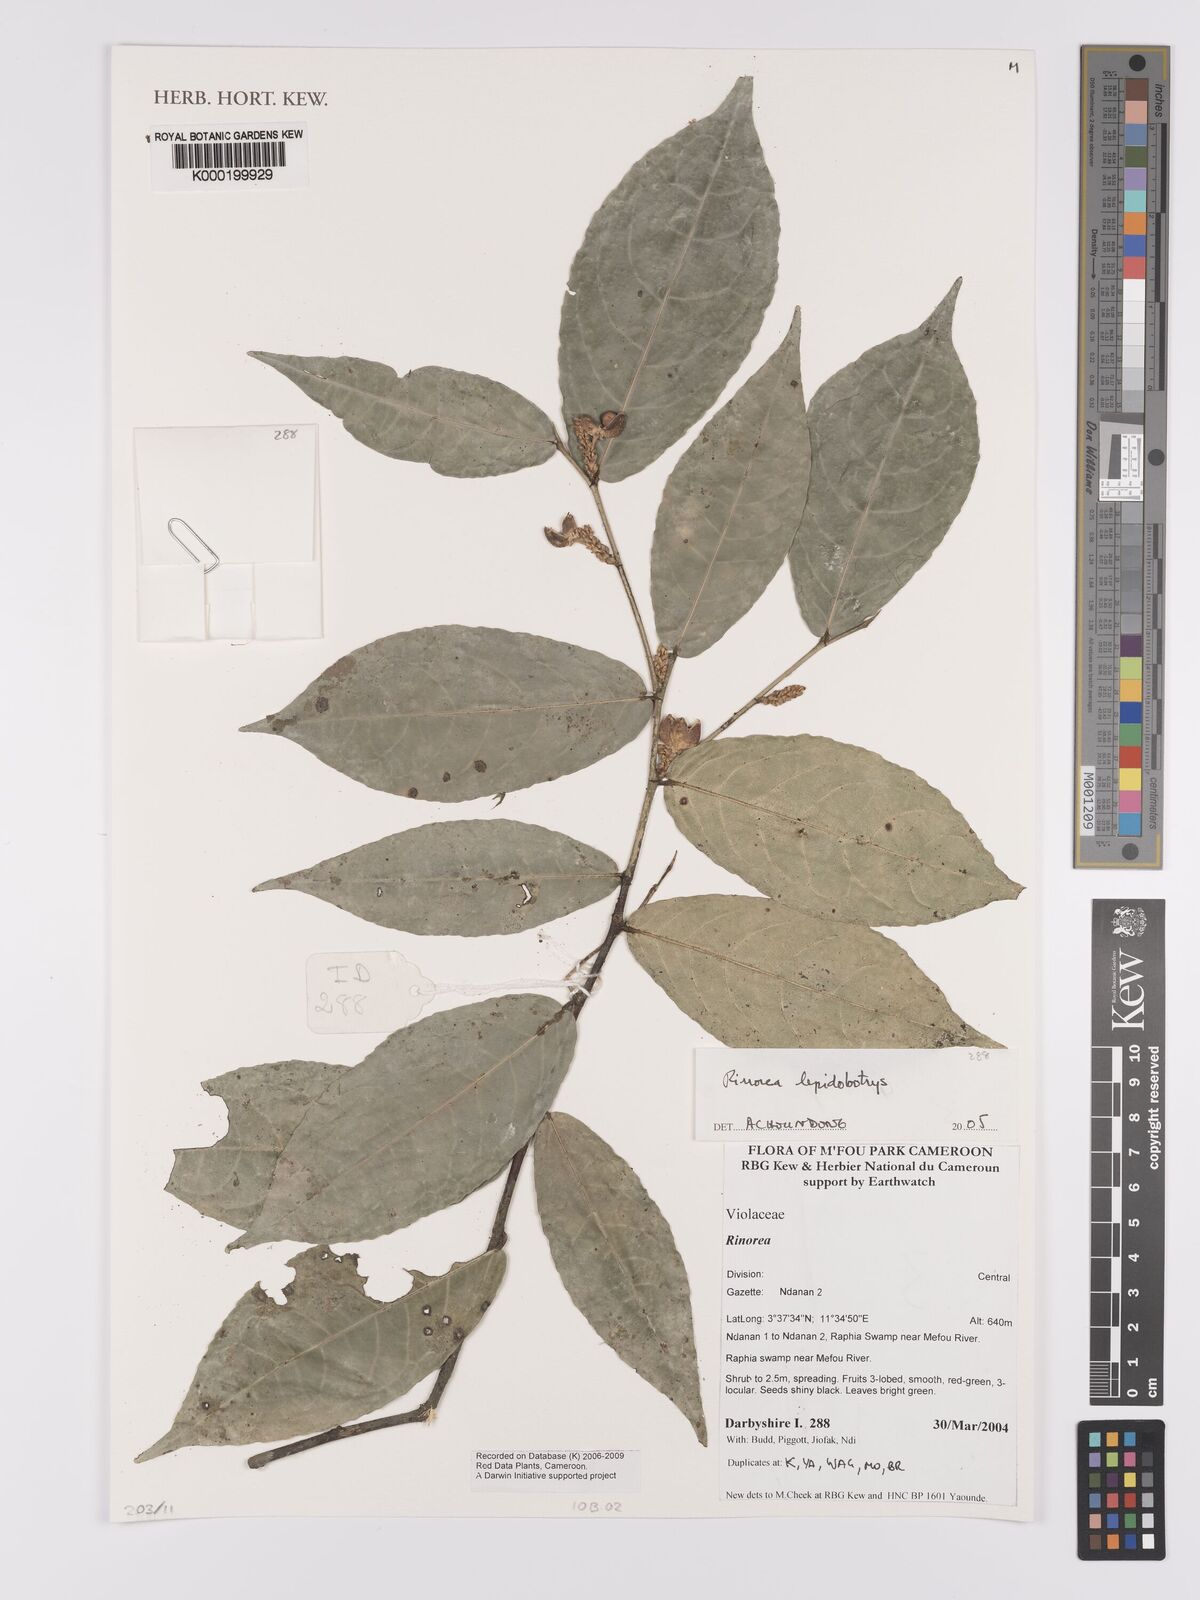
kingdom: Plantae
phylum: Tracheophyta
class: Magnoliopsida
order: Malpighiales
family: Violaceae
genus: Rinorea
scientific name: Rinorea lepidobotrys
